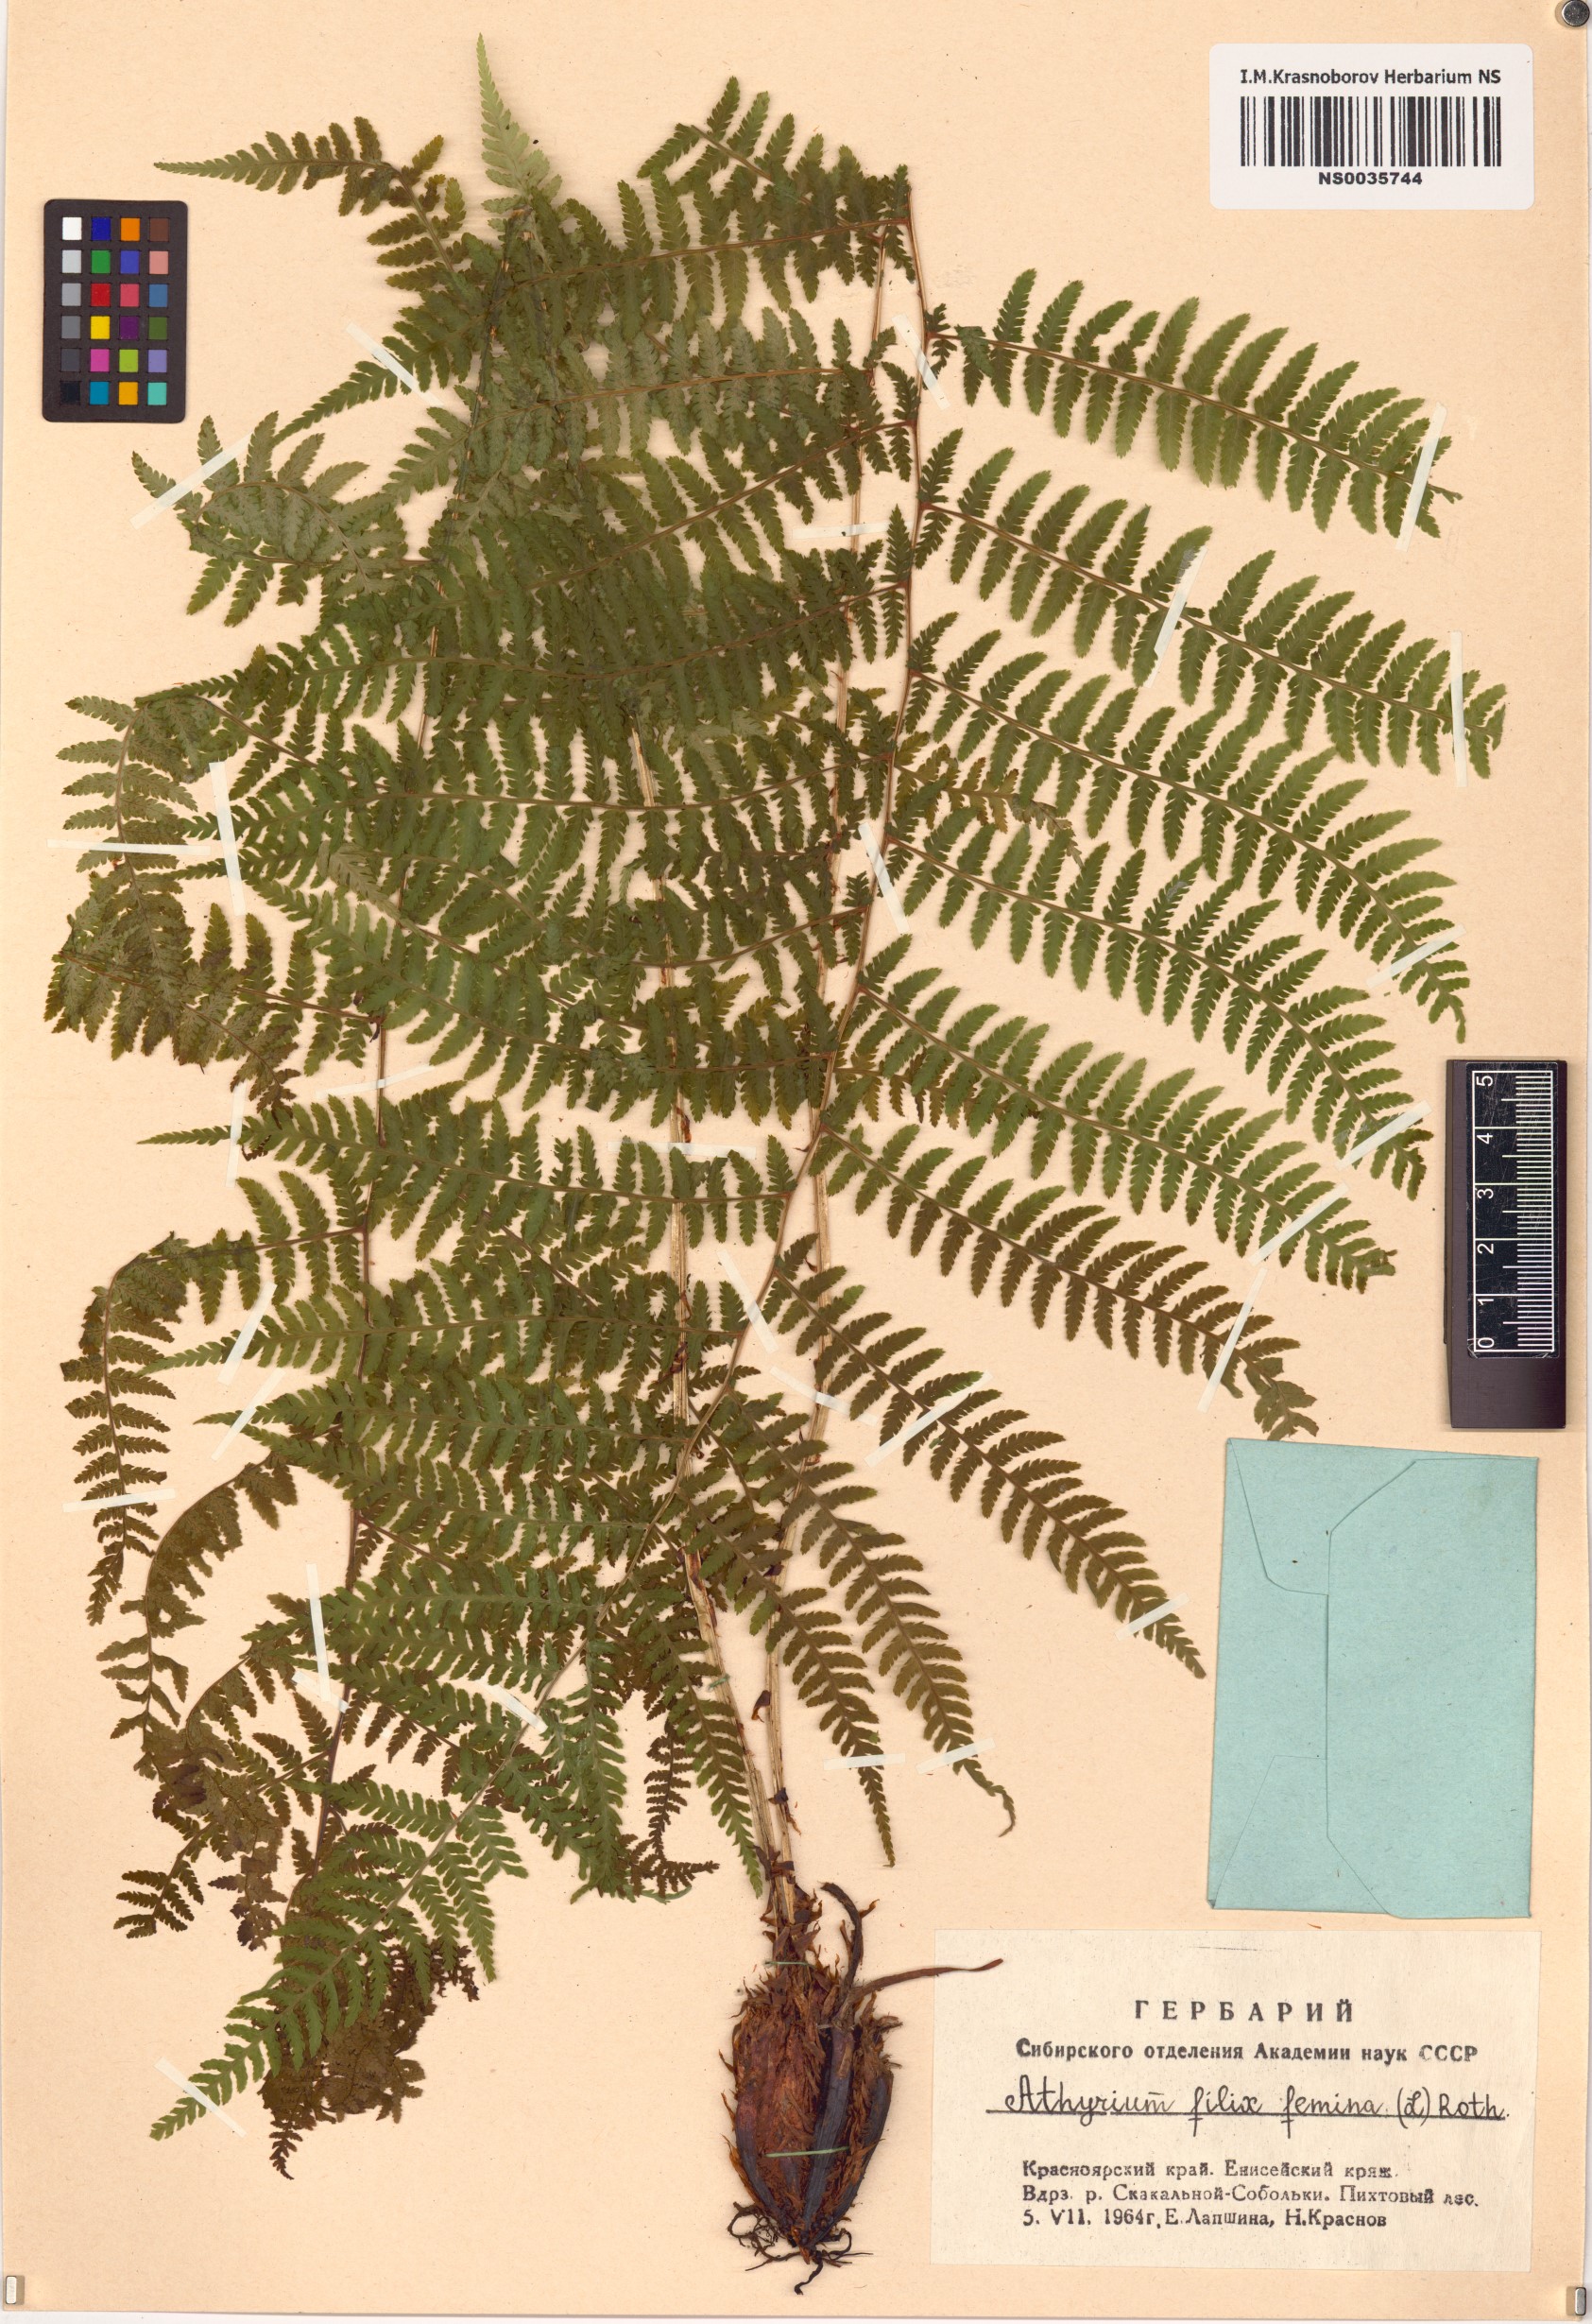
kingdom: Plantae
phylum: Tracheophyta
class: Polypodiopsida
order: Polypodiales
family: Athyriaceae
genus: Athyrium
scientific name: Athyrium filix-femina
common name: Lady fern
